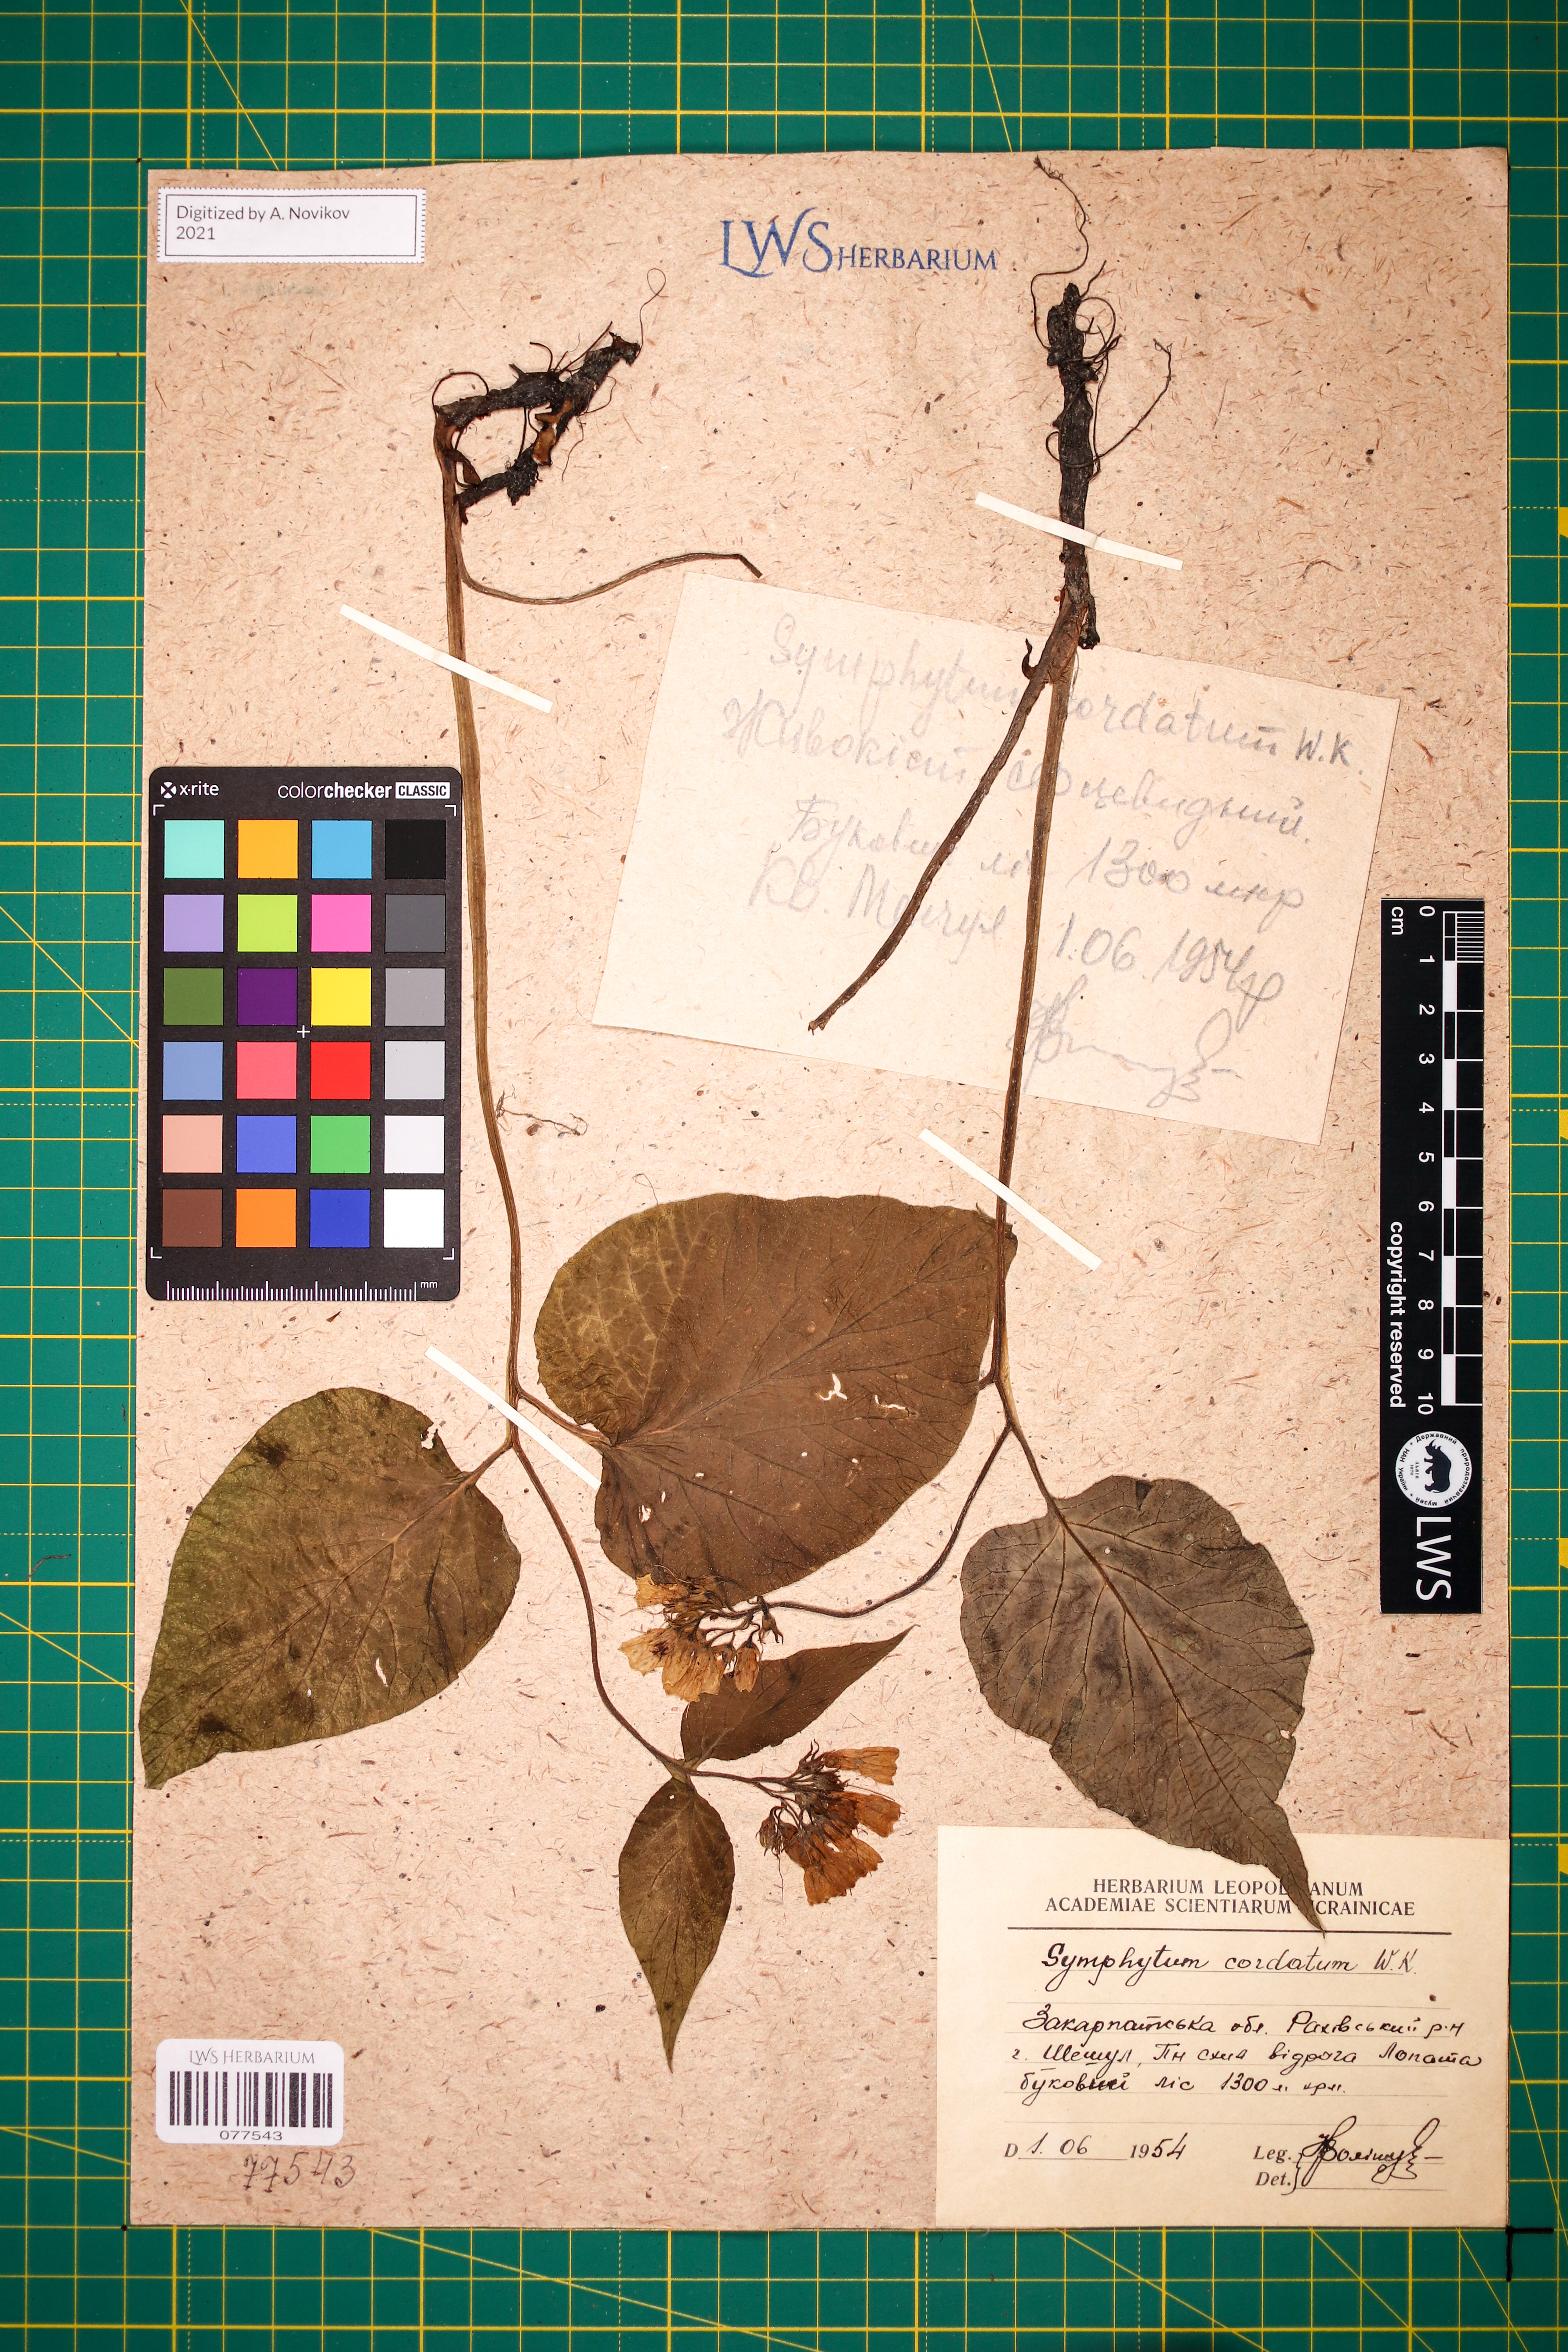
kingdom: Plantae
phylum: Tracheophyta
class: Magnoliopsida
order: Boraginales
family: Boraginaceae
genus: Symphytum
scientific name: Symphytum cordatum
